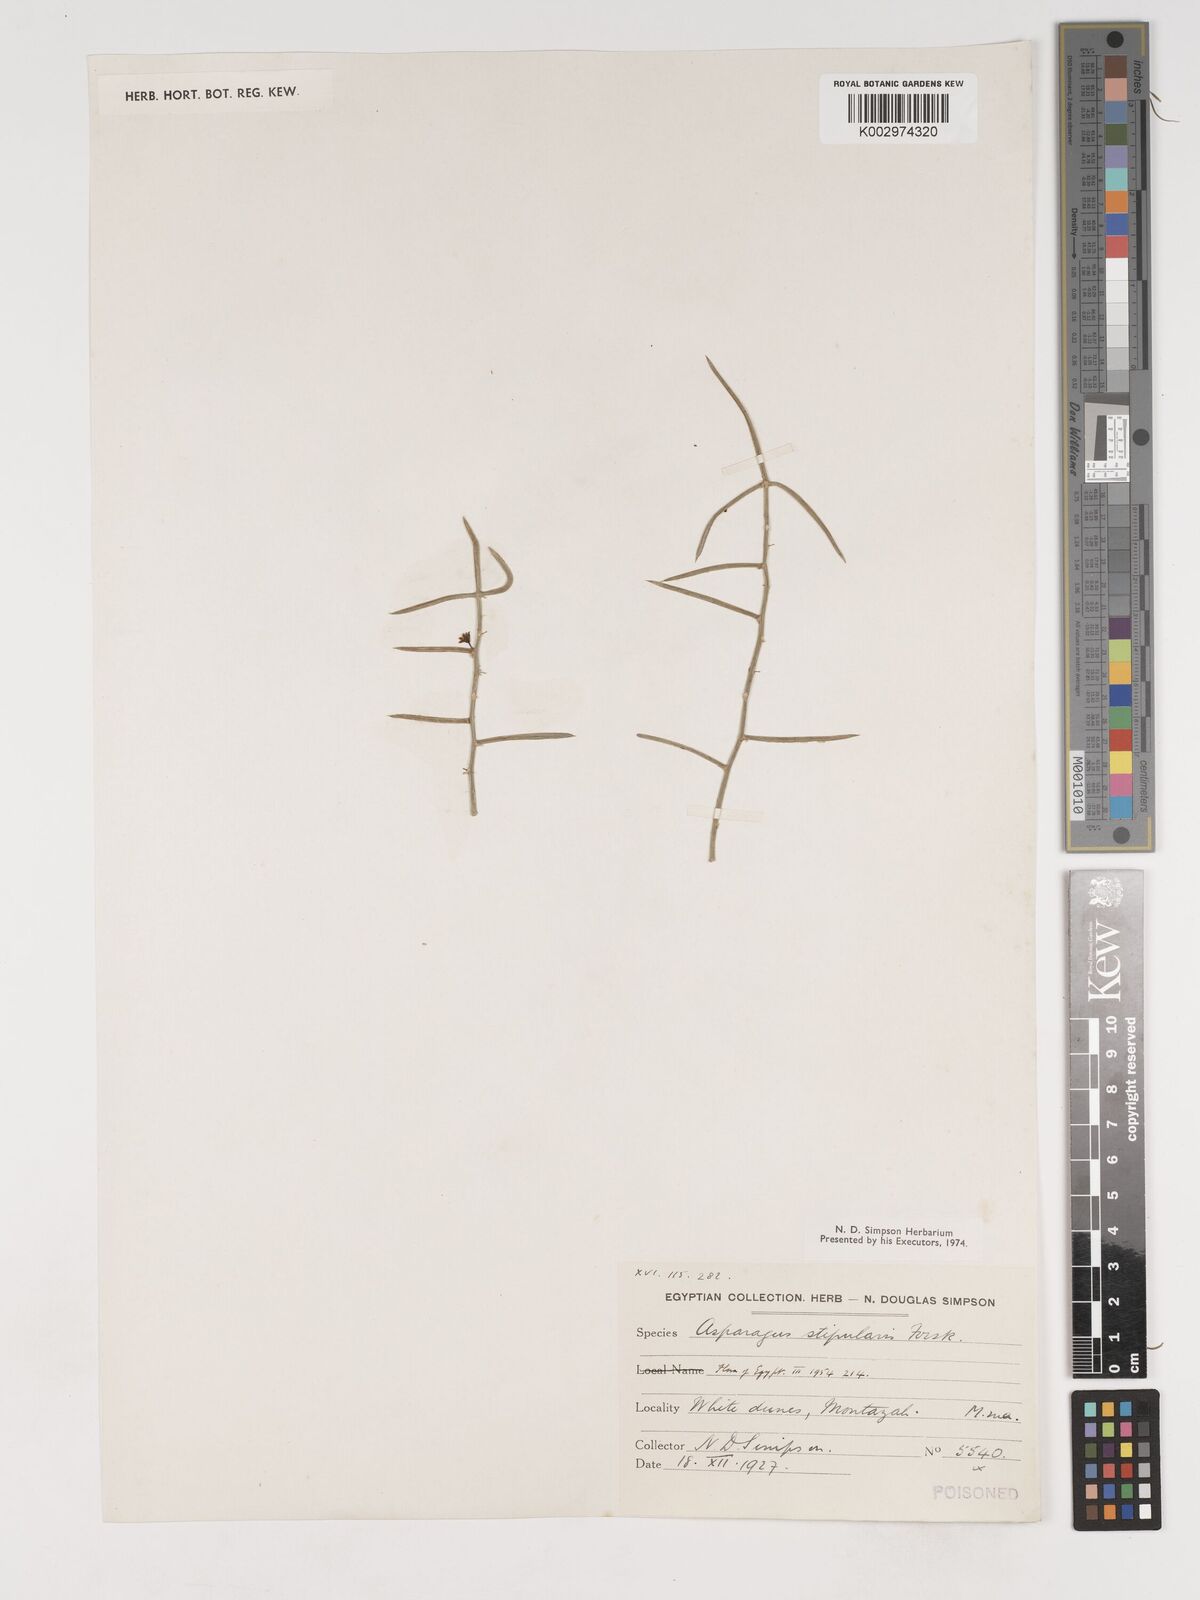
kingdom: Plantae
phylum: Tracheophyta
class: Liliopsida
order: Asparagales
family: Asparagaceae
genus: Asparagus
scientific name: Asparagus horridus
